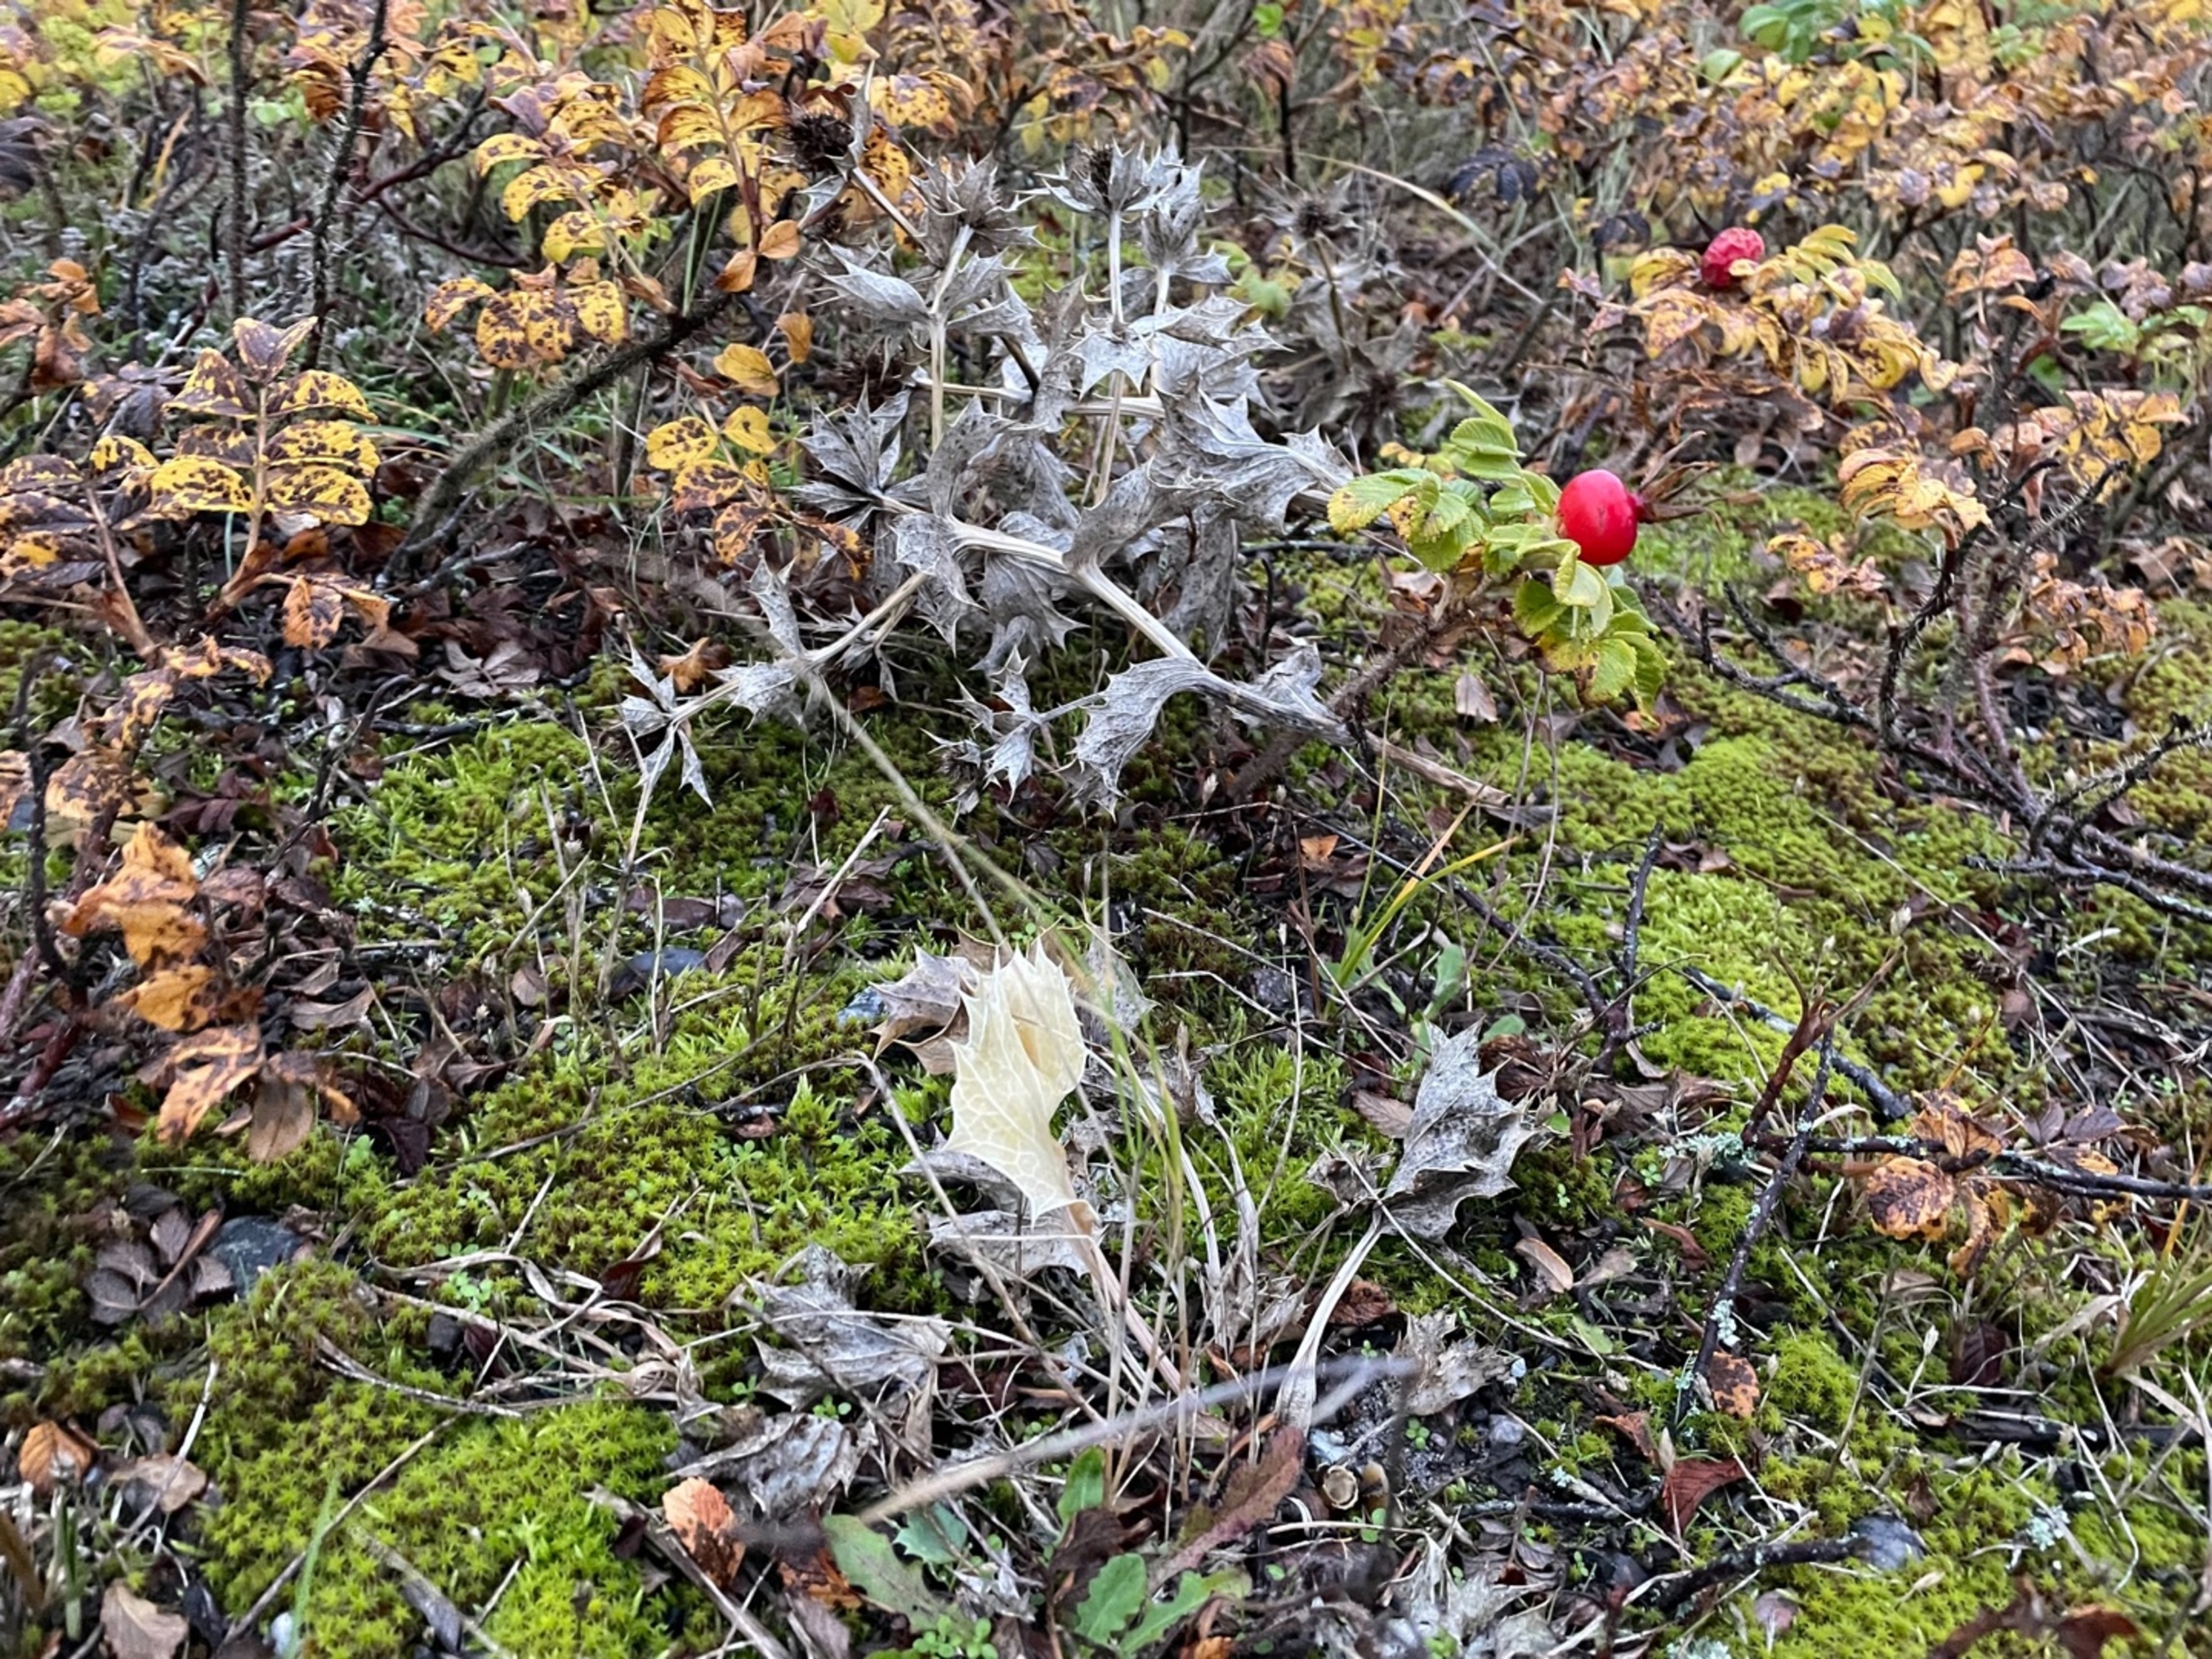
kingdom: Plantae
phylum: Tracheophyta
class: Magnoliopsida
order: Apiales
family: Apiaceae
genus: Eryngium
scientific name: Eryngium maritimum
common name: Strand-mandstro
